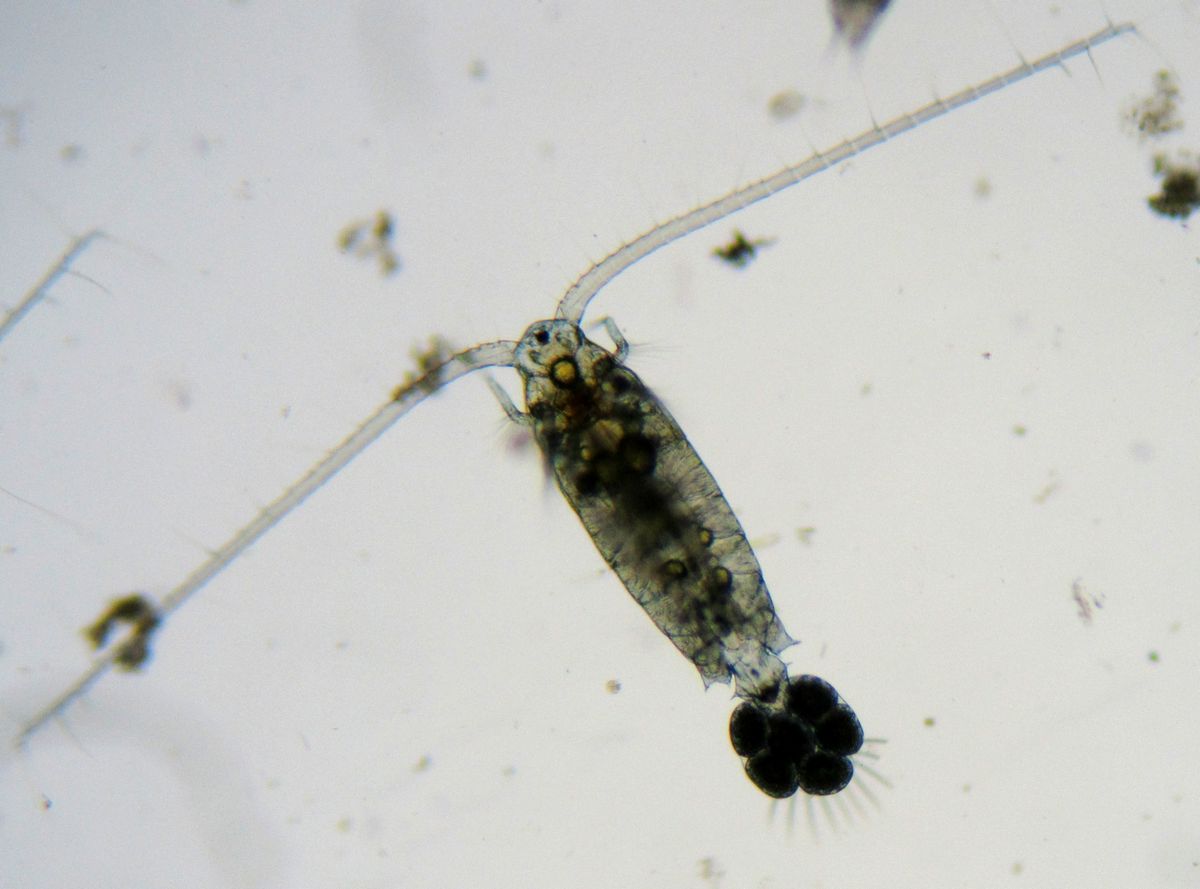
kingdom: Animalia
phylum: Arthropoda
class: Copepoda
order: Calanoida
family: Diaptomidae
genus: Diaptomus
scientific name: Diaptomus zografi
